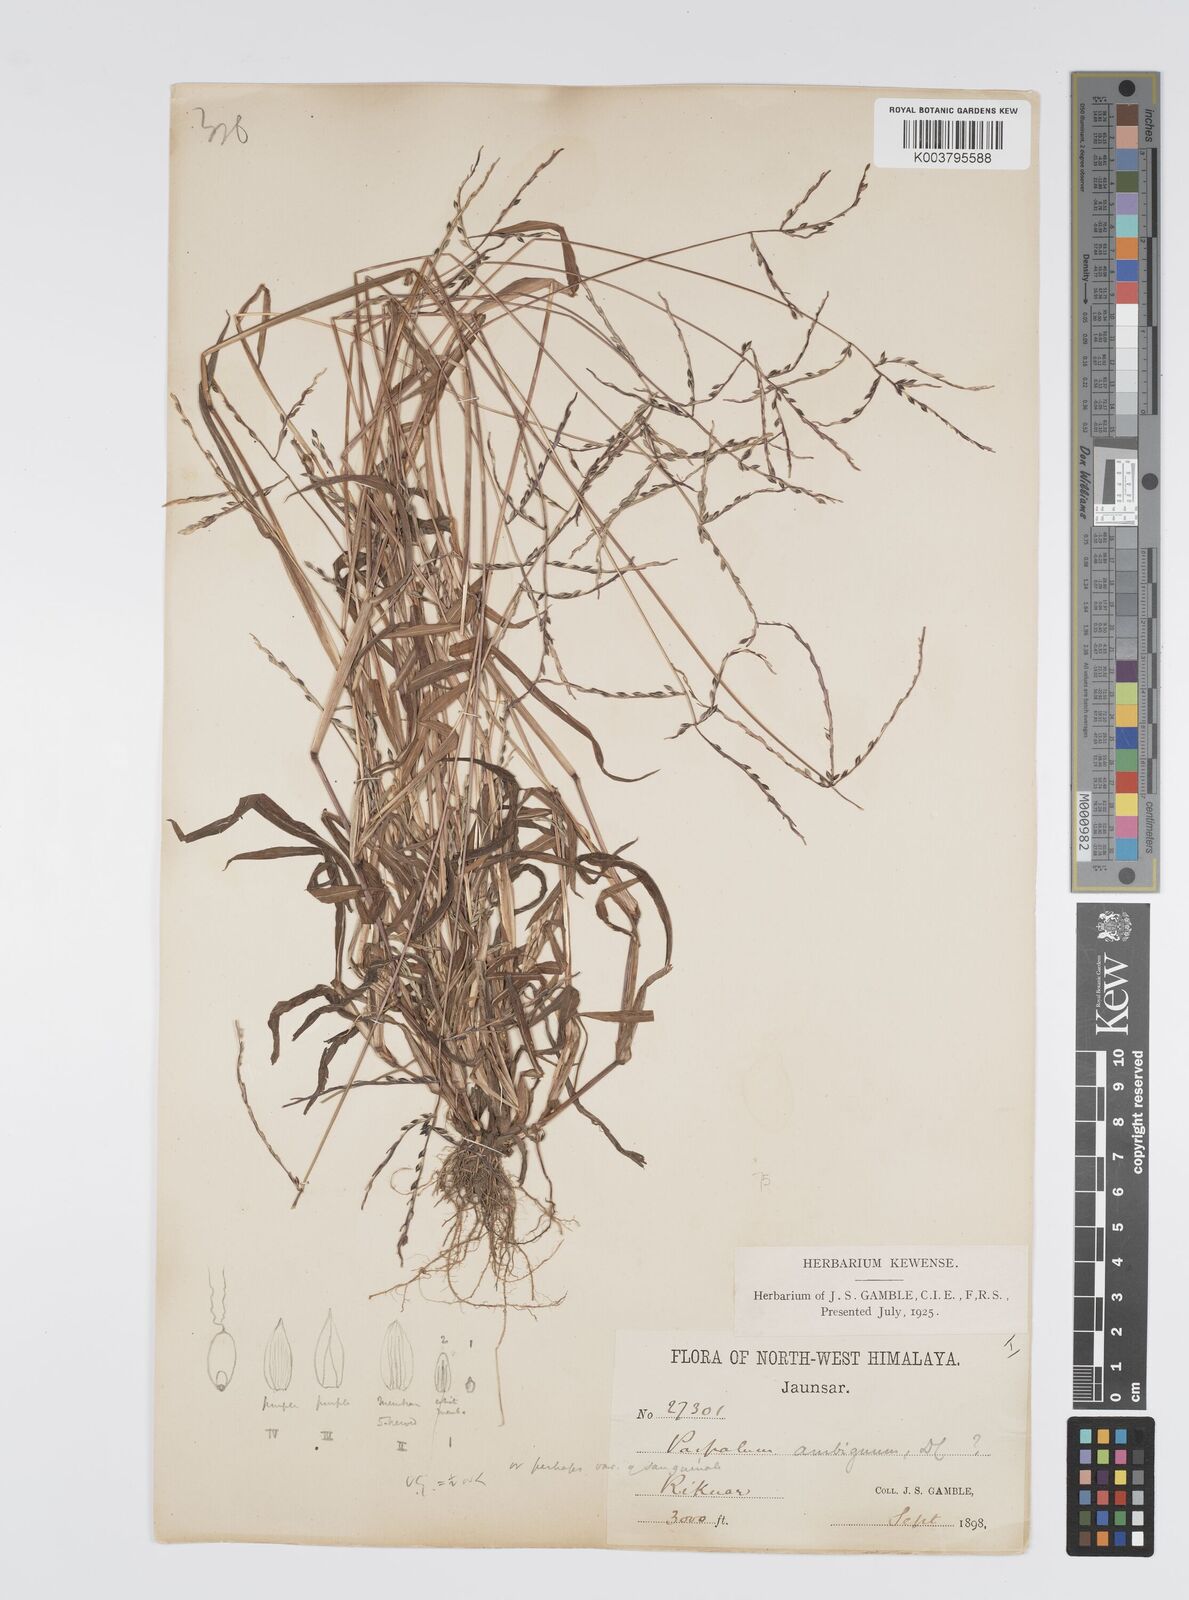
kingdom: Plantae
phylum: Tracheophyta
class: Liliopsida
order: Poales
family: Poaceae
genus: Digitaria
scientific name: Digitaria sanguinalis
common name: Hairy crabgrass
